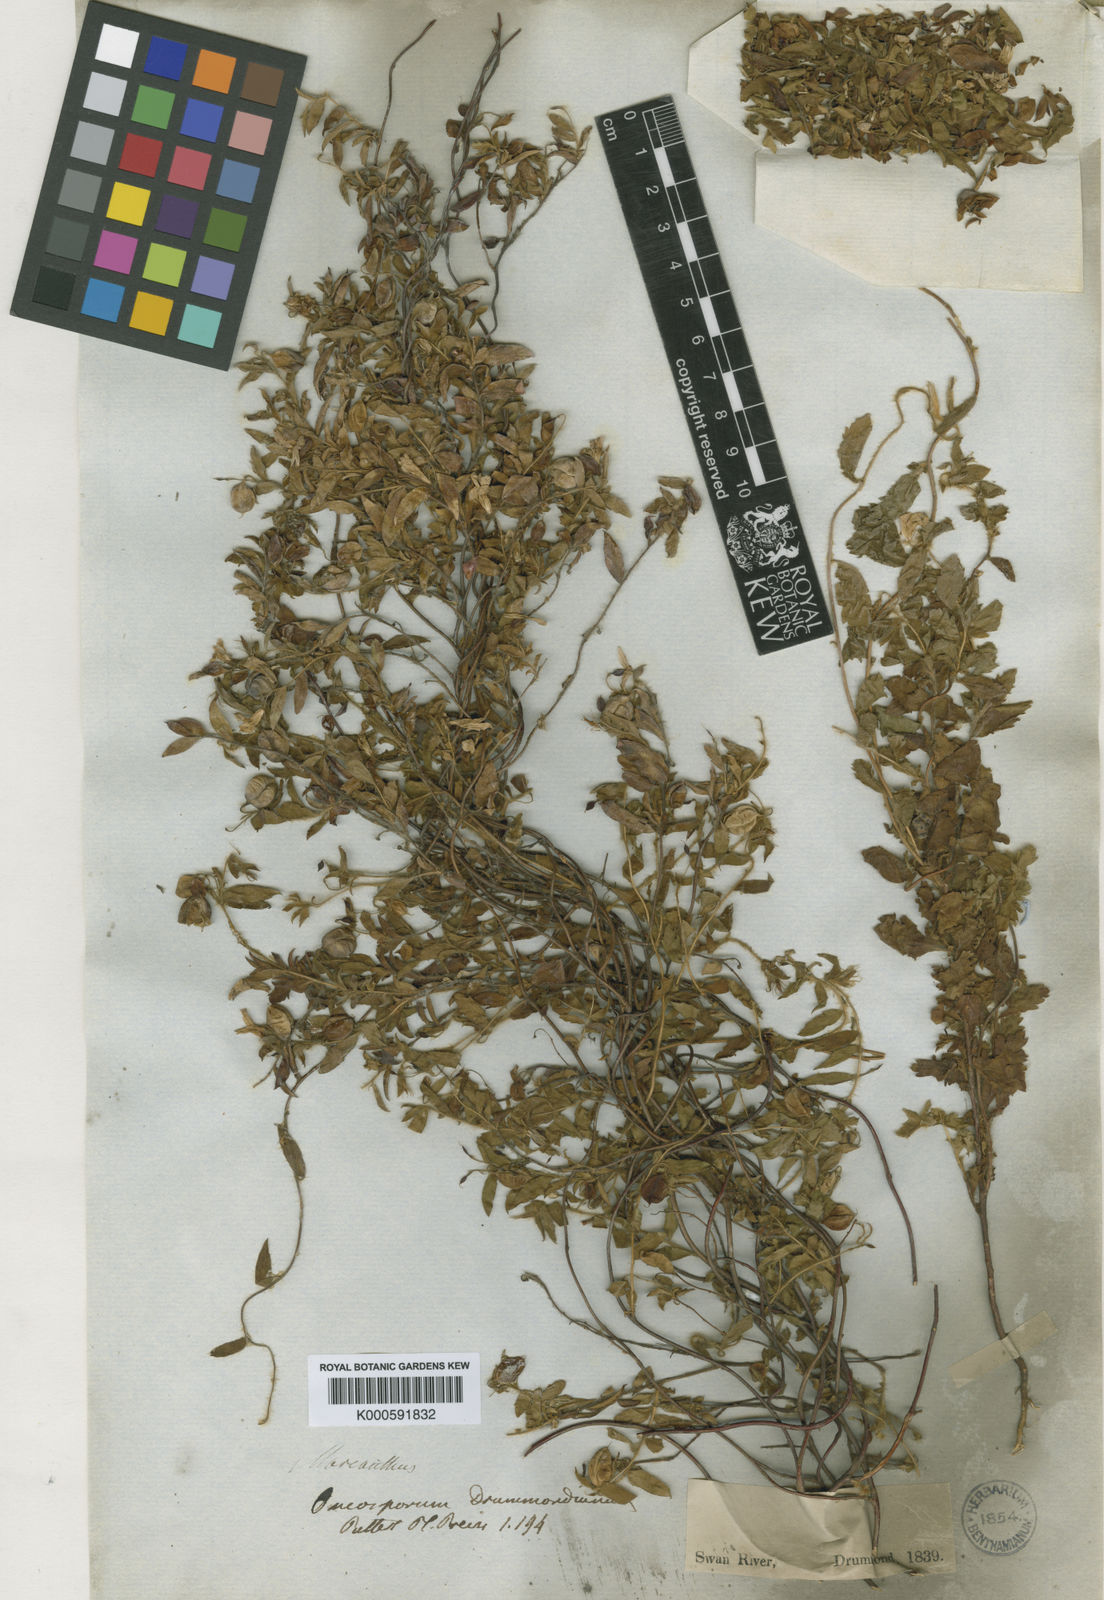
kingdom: Plantae
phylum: Tracheophyta
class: Magnoliopsida
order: Apiales
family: Pittosporaceae
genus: Marianthus
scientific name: Marianthus drummondianus
